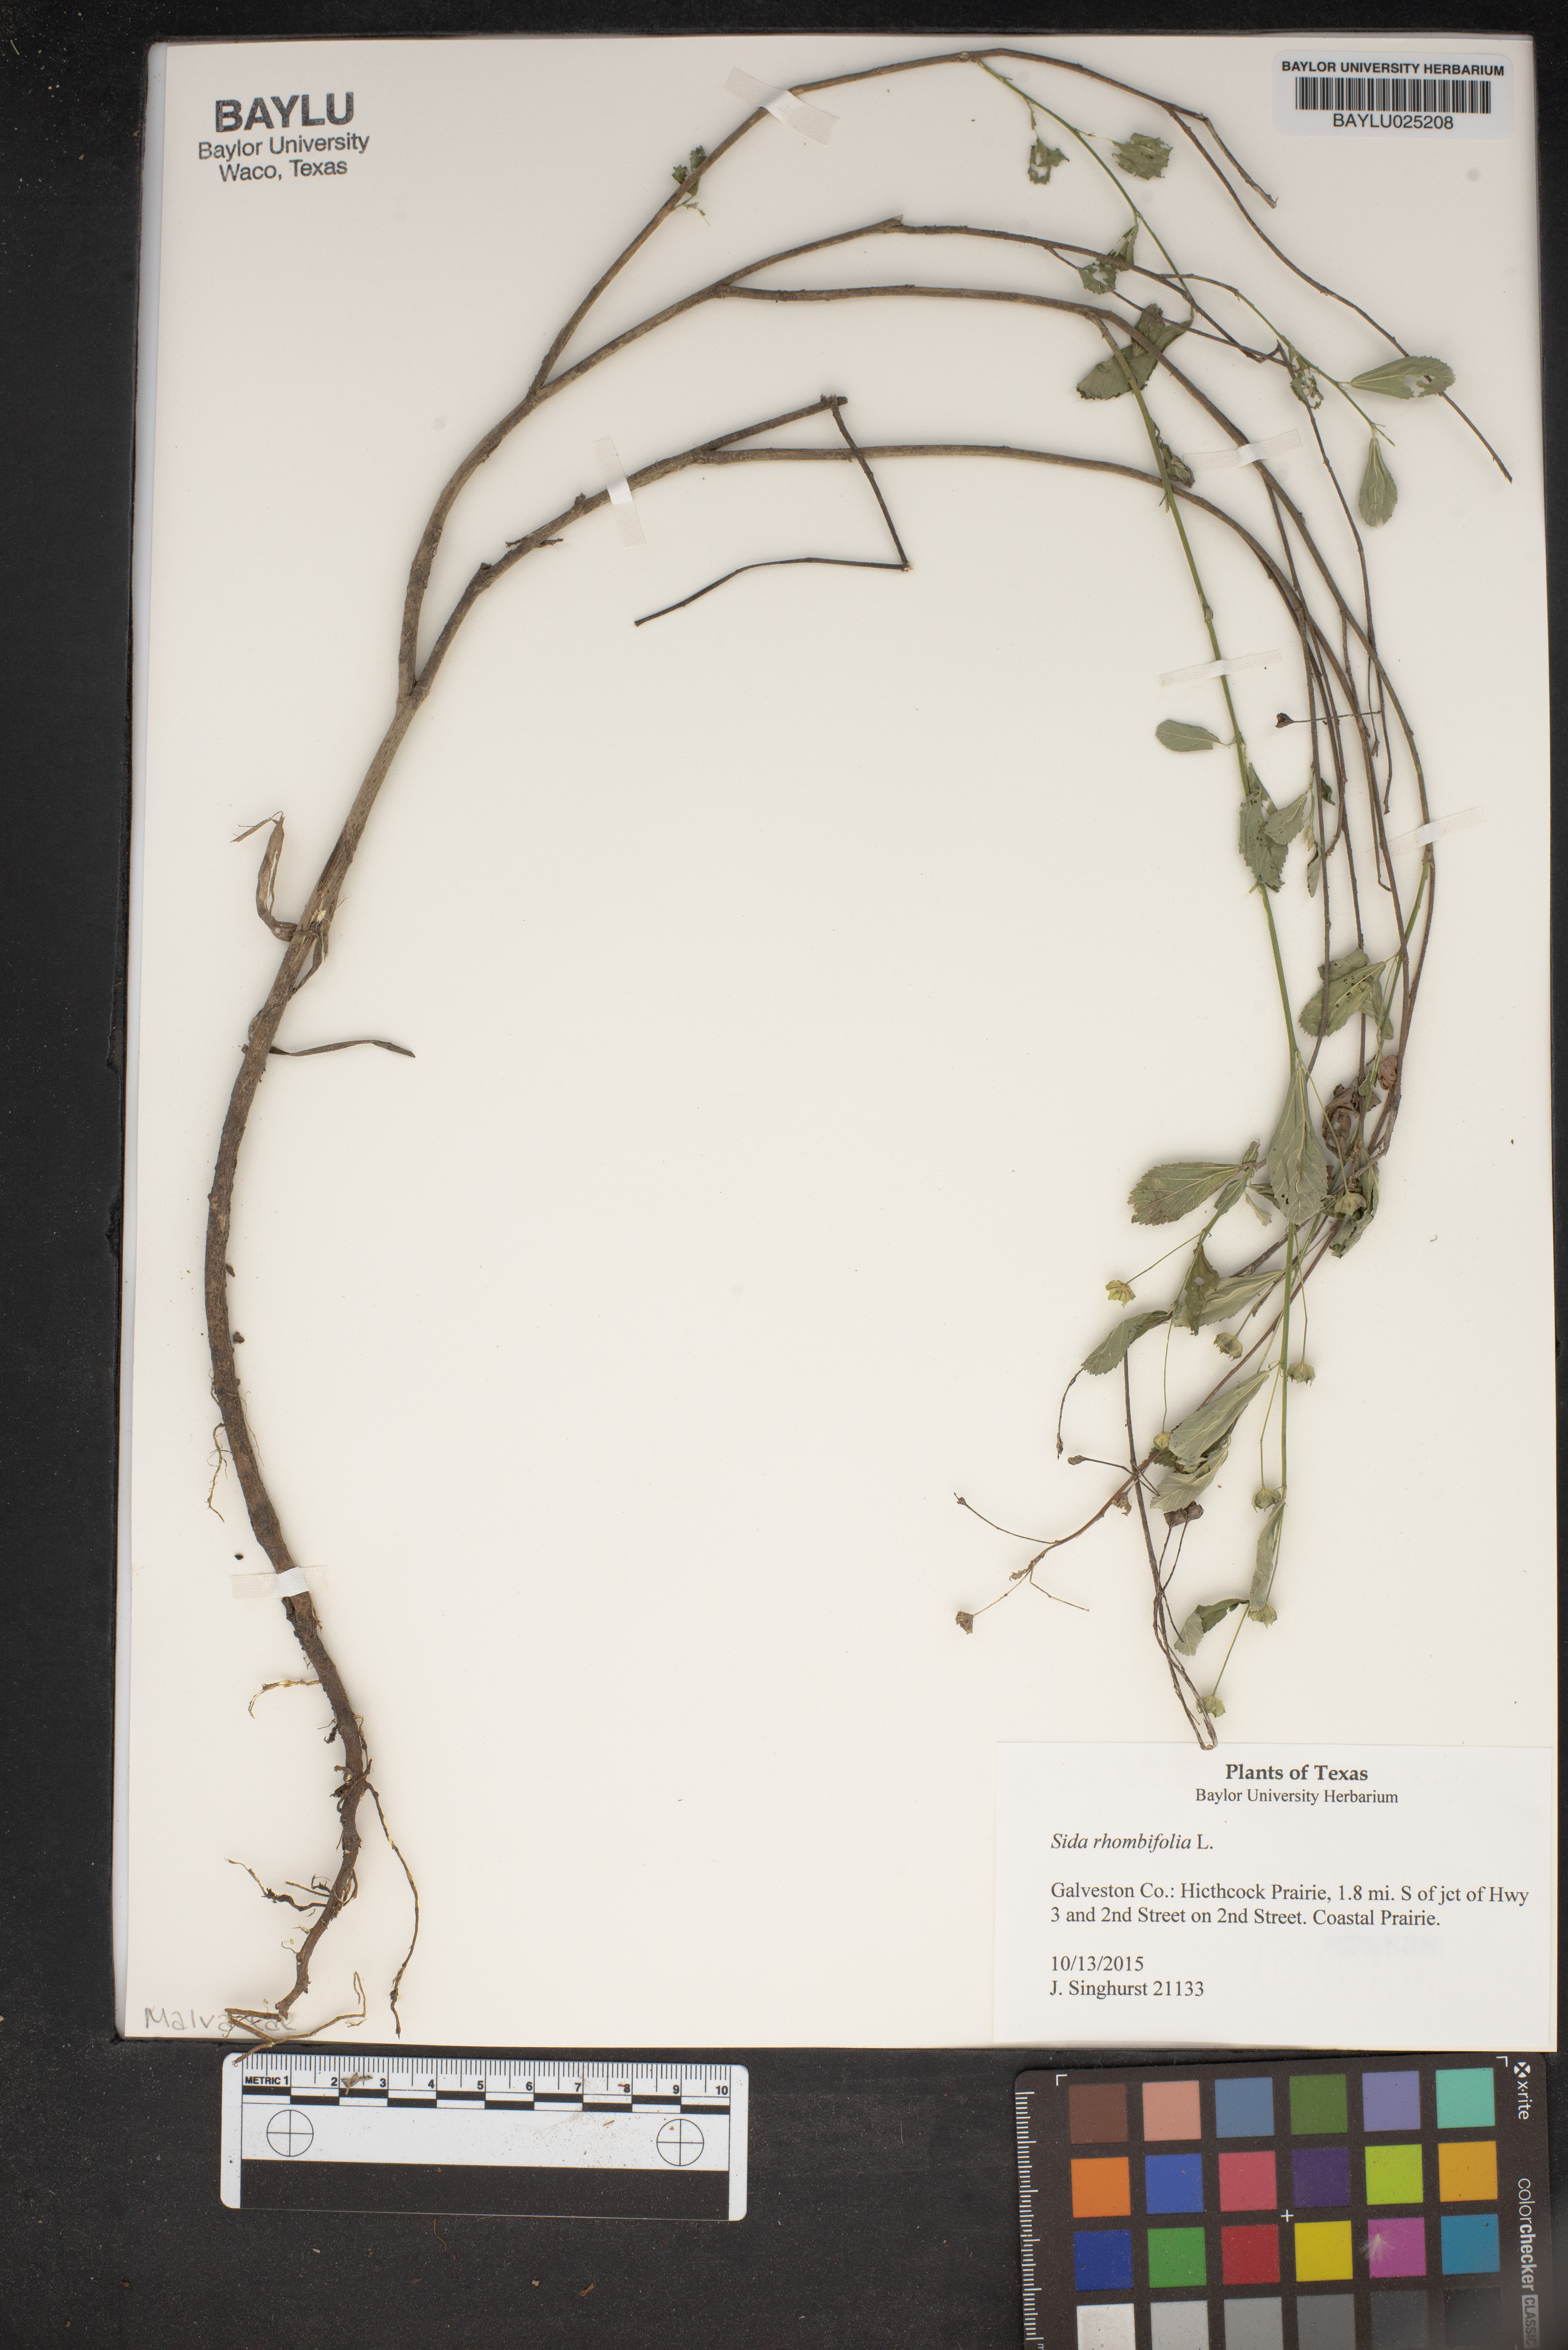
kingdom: Plantae
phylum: Tracheophyta
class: Magnoliopsida
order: Malvales
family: Malvaceae
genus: Sida
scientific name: Sida rhombifolia
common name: Queensland-hemp
